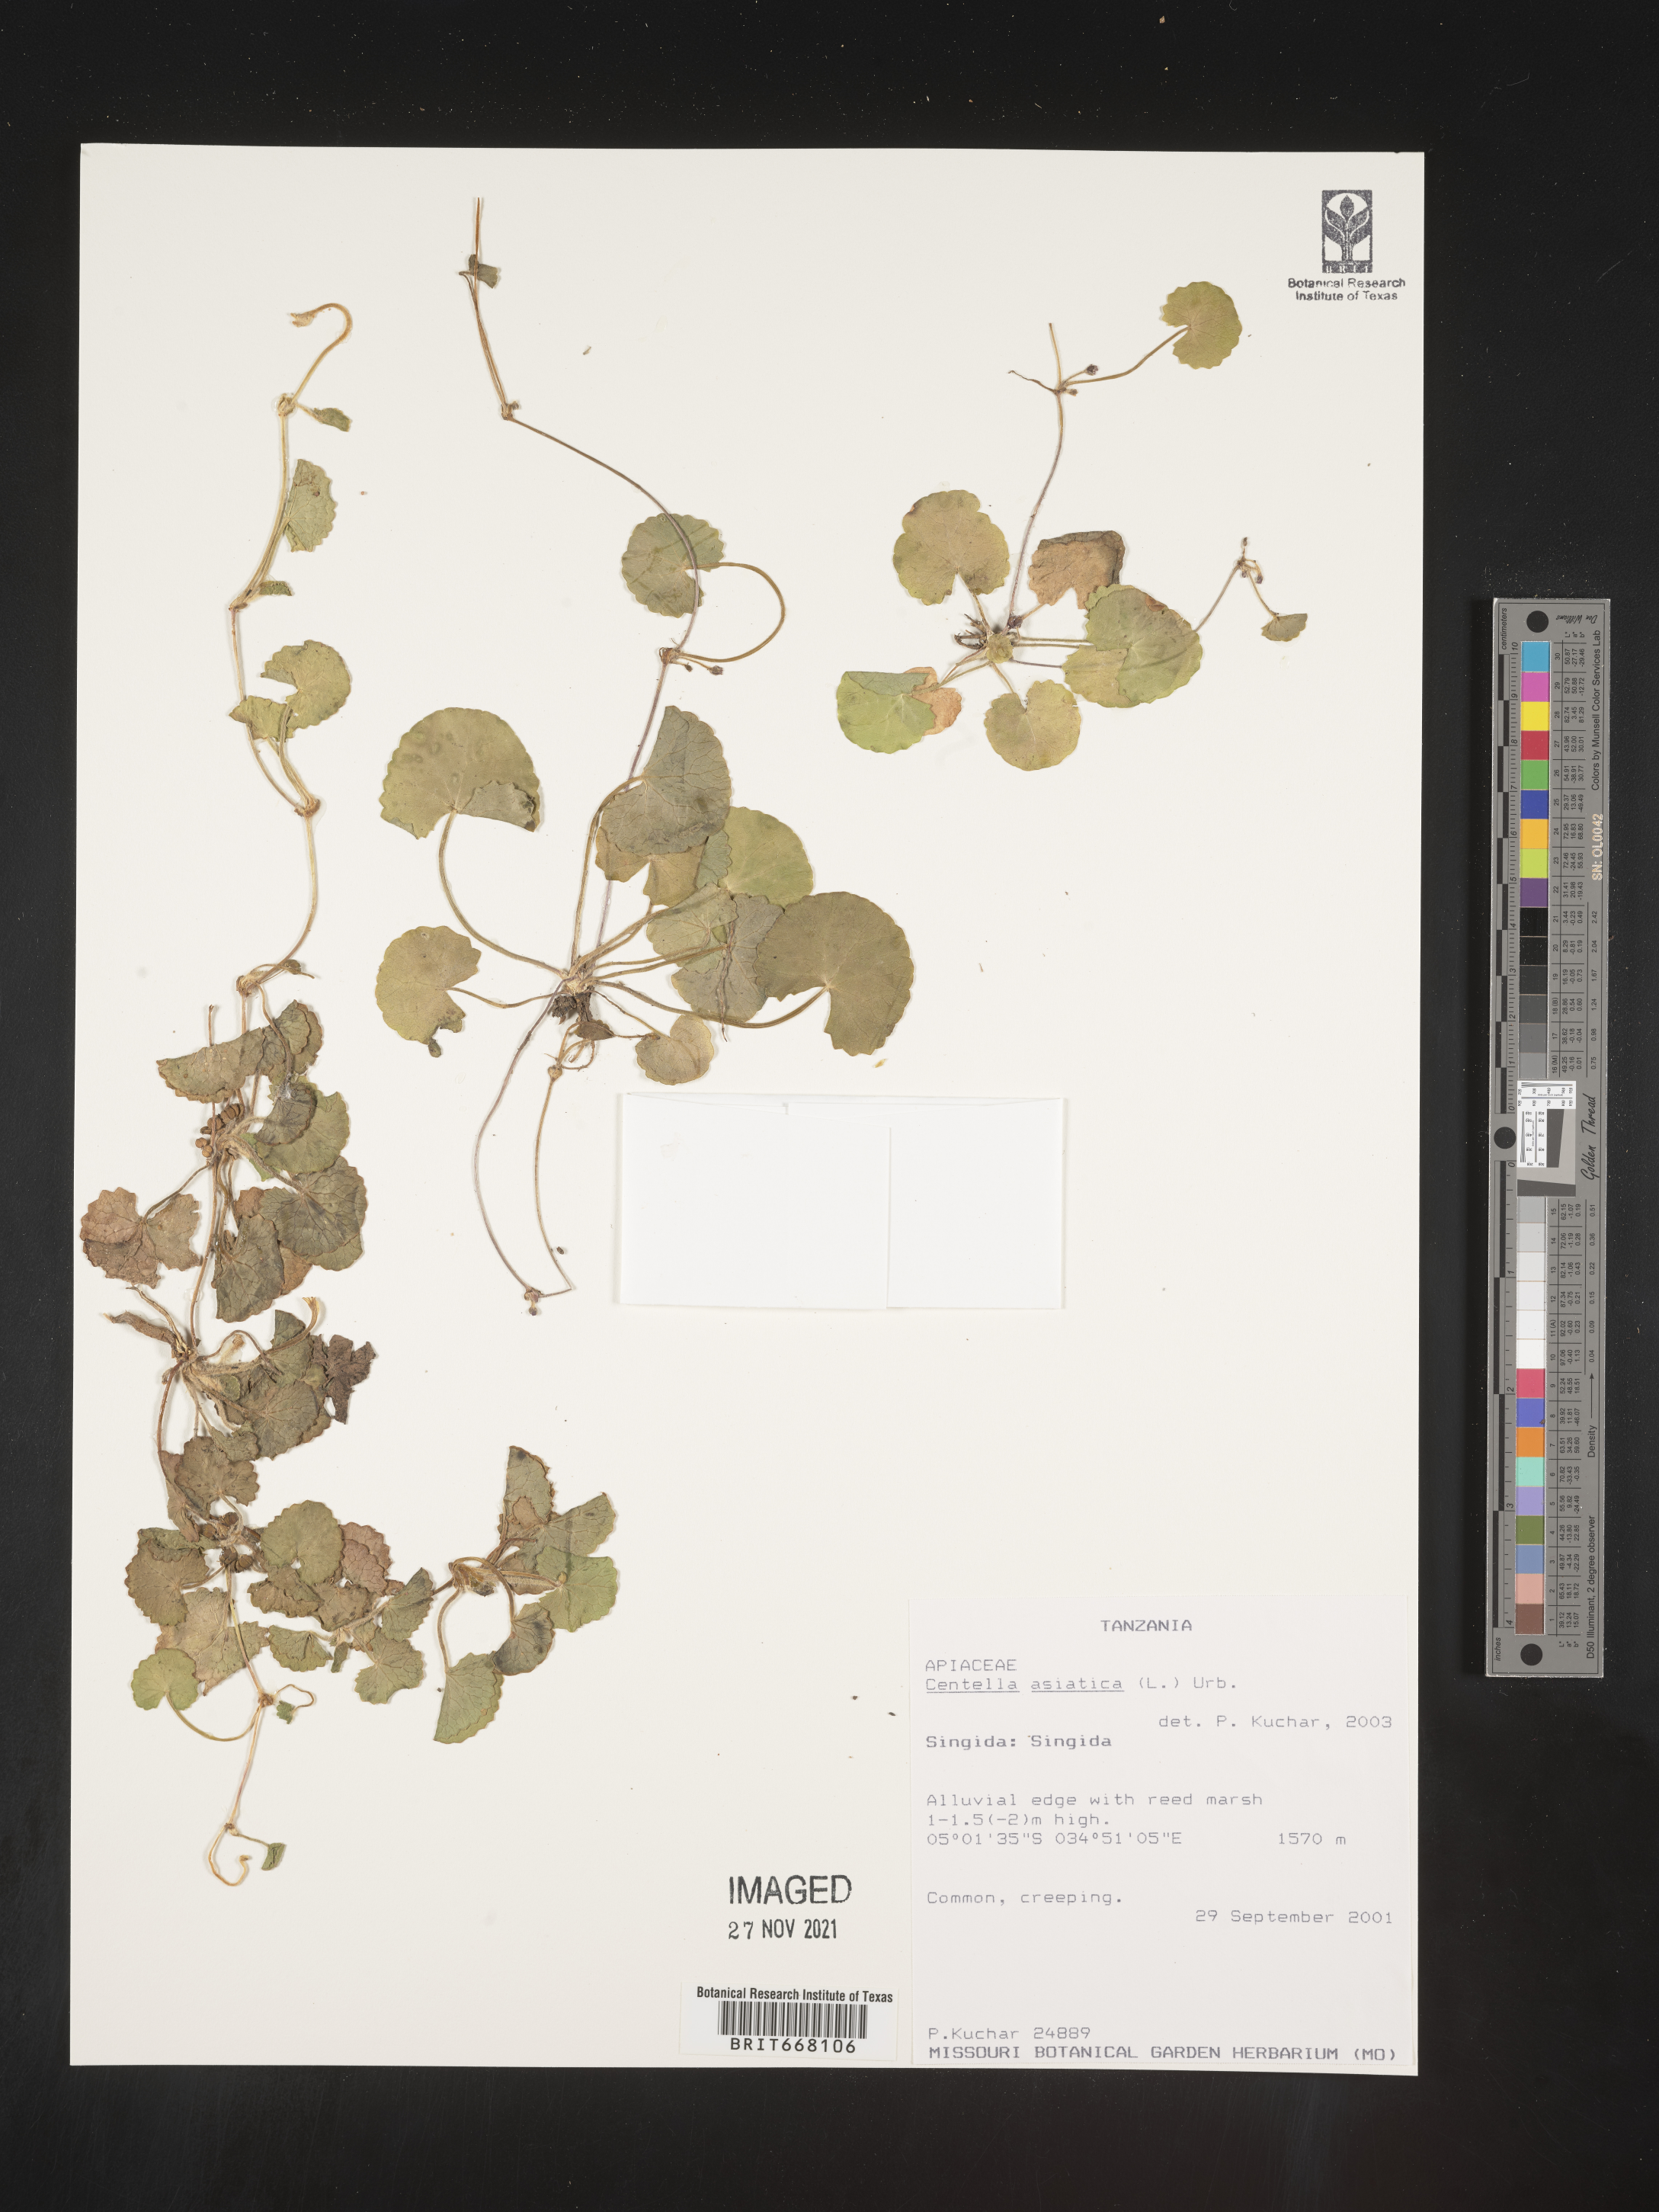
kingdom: Plantae
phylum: Tracheophyta
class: Magnoliopsida
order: Apiales
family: Apiaceae
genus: Centella
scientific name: Centella
